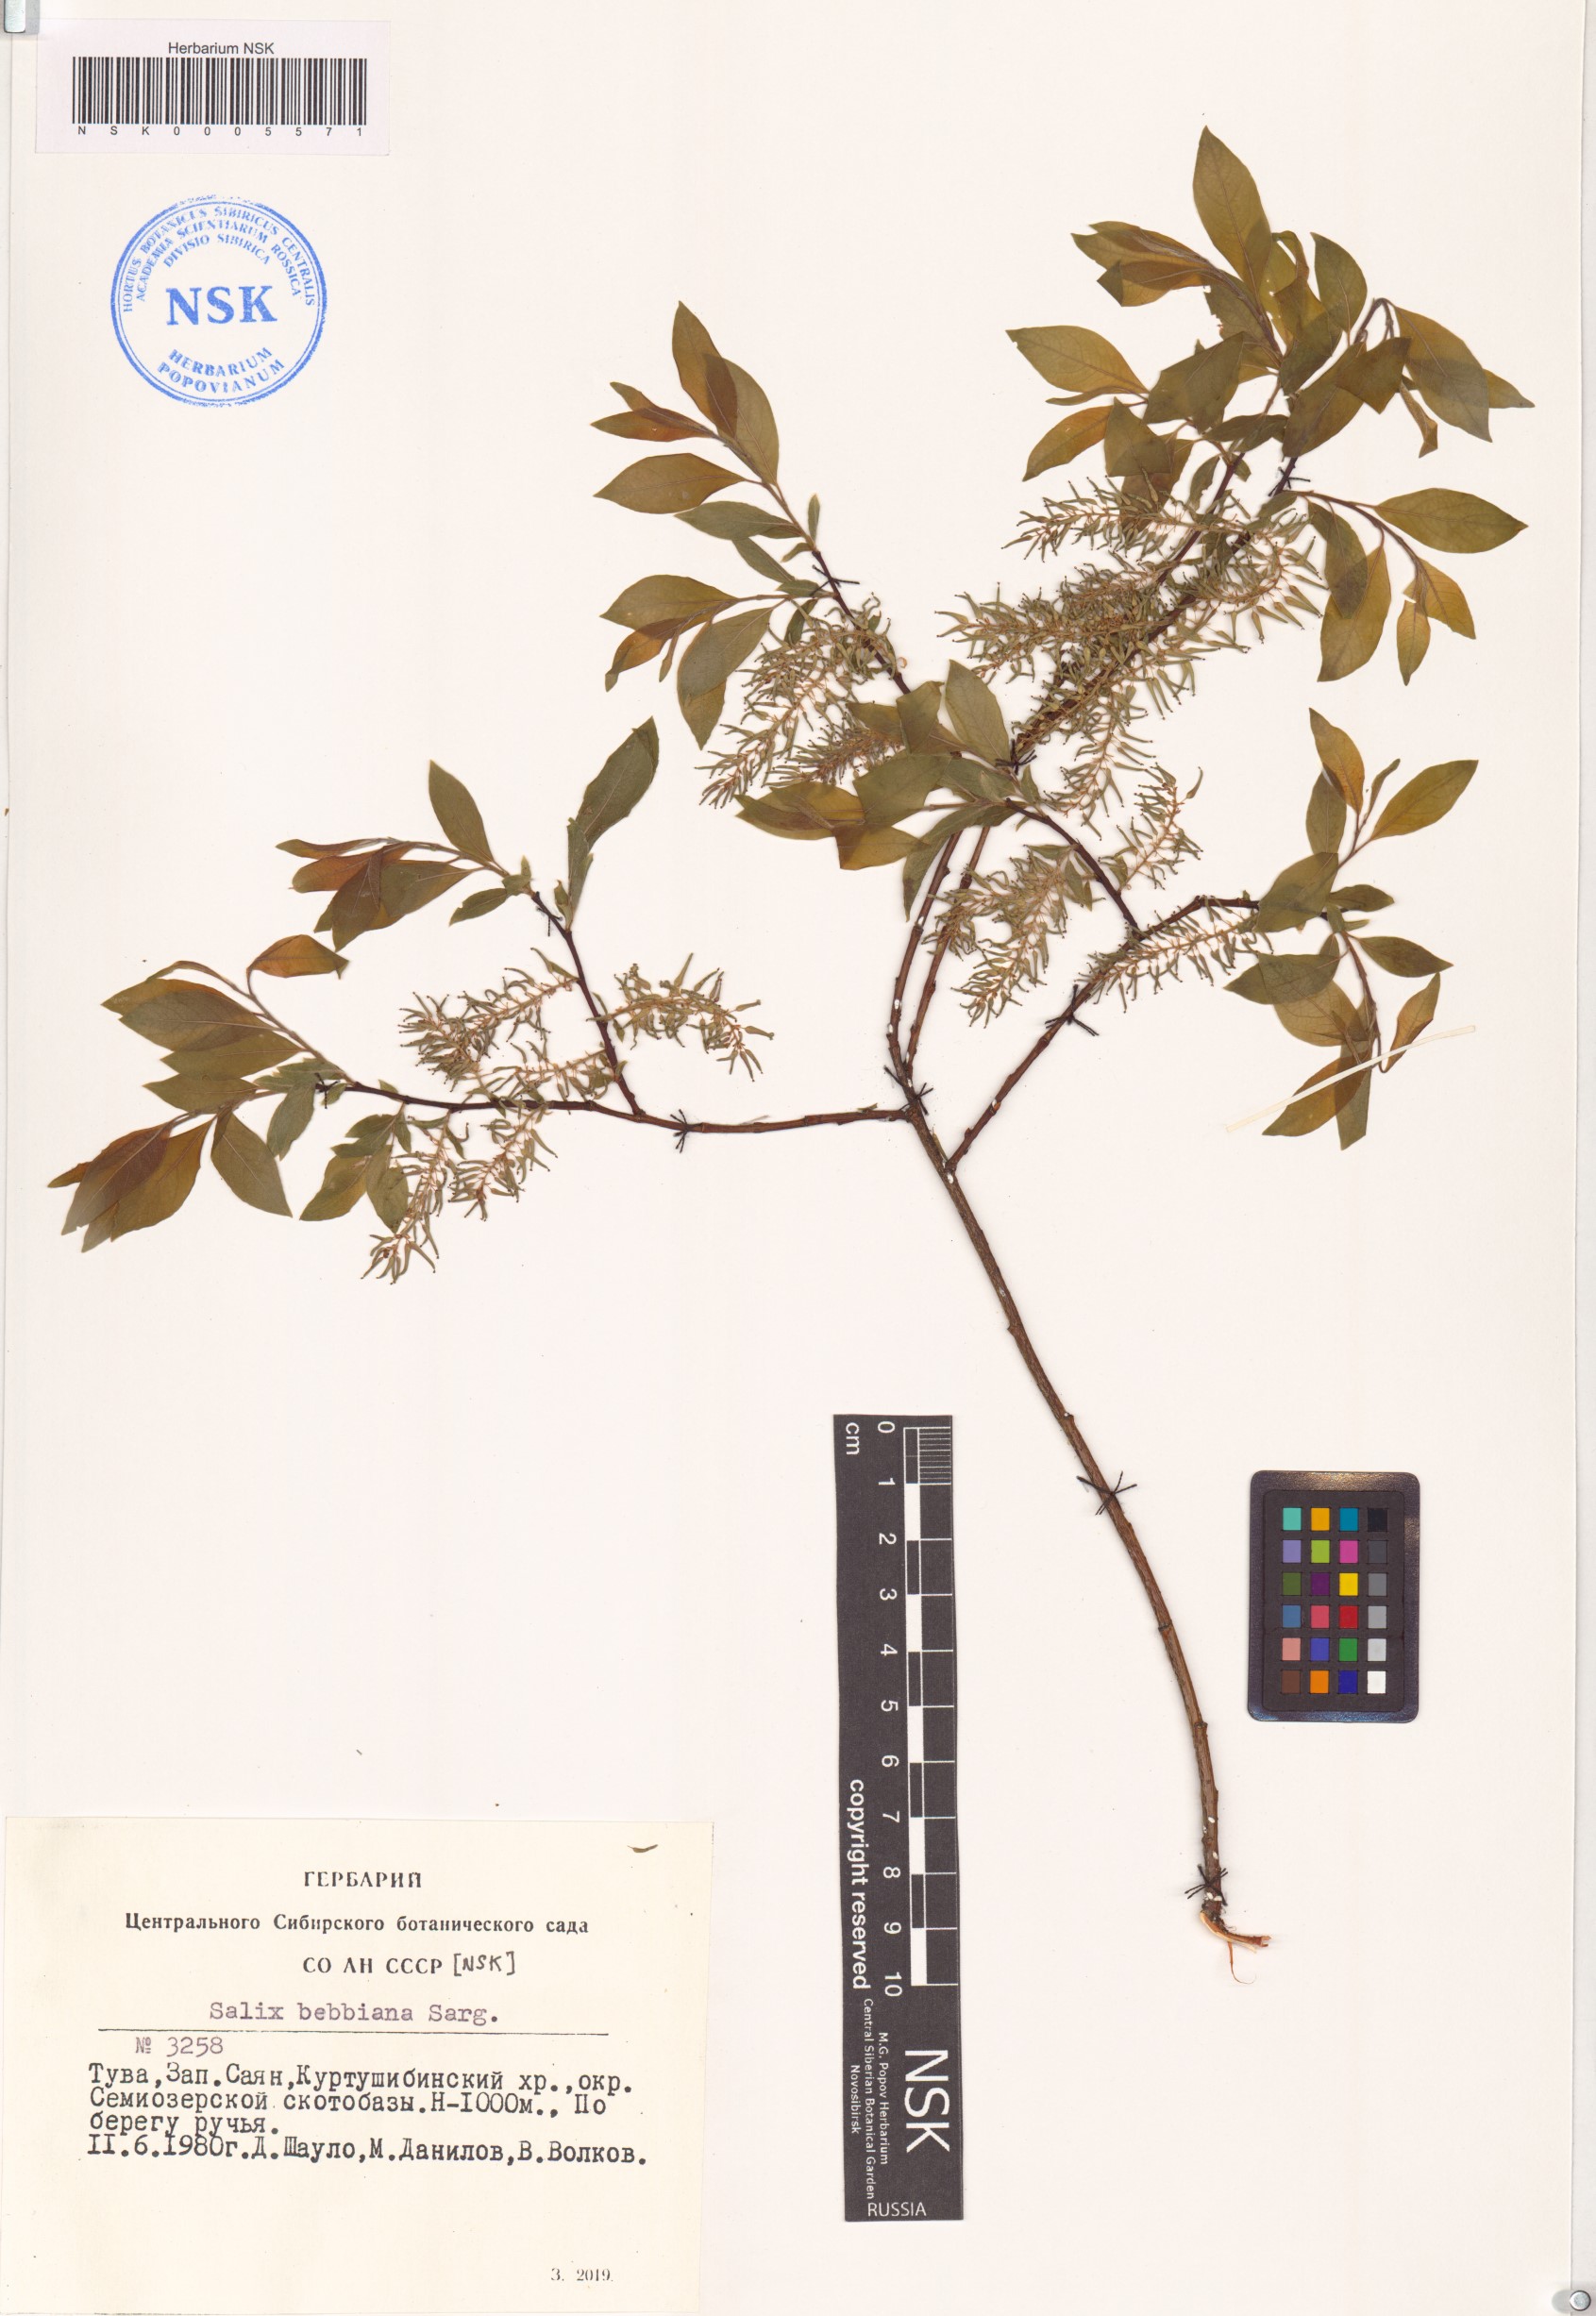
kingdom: Plantae
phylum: Tracheophyta
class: Magnoliopsida
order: Malpighiales
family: Salicaceae
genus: Salix
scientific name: Salix bebbiana
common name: Bebb's willow
